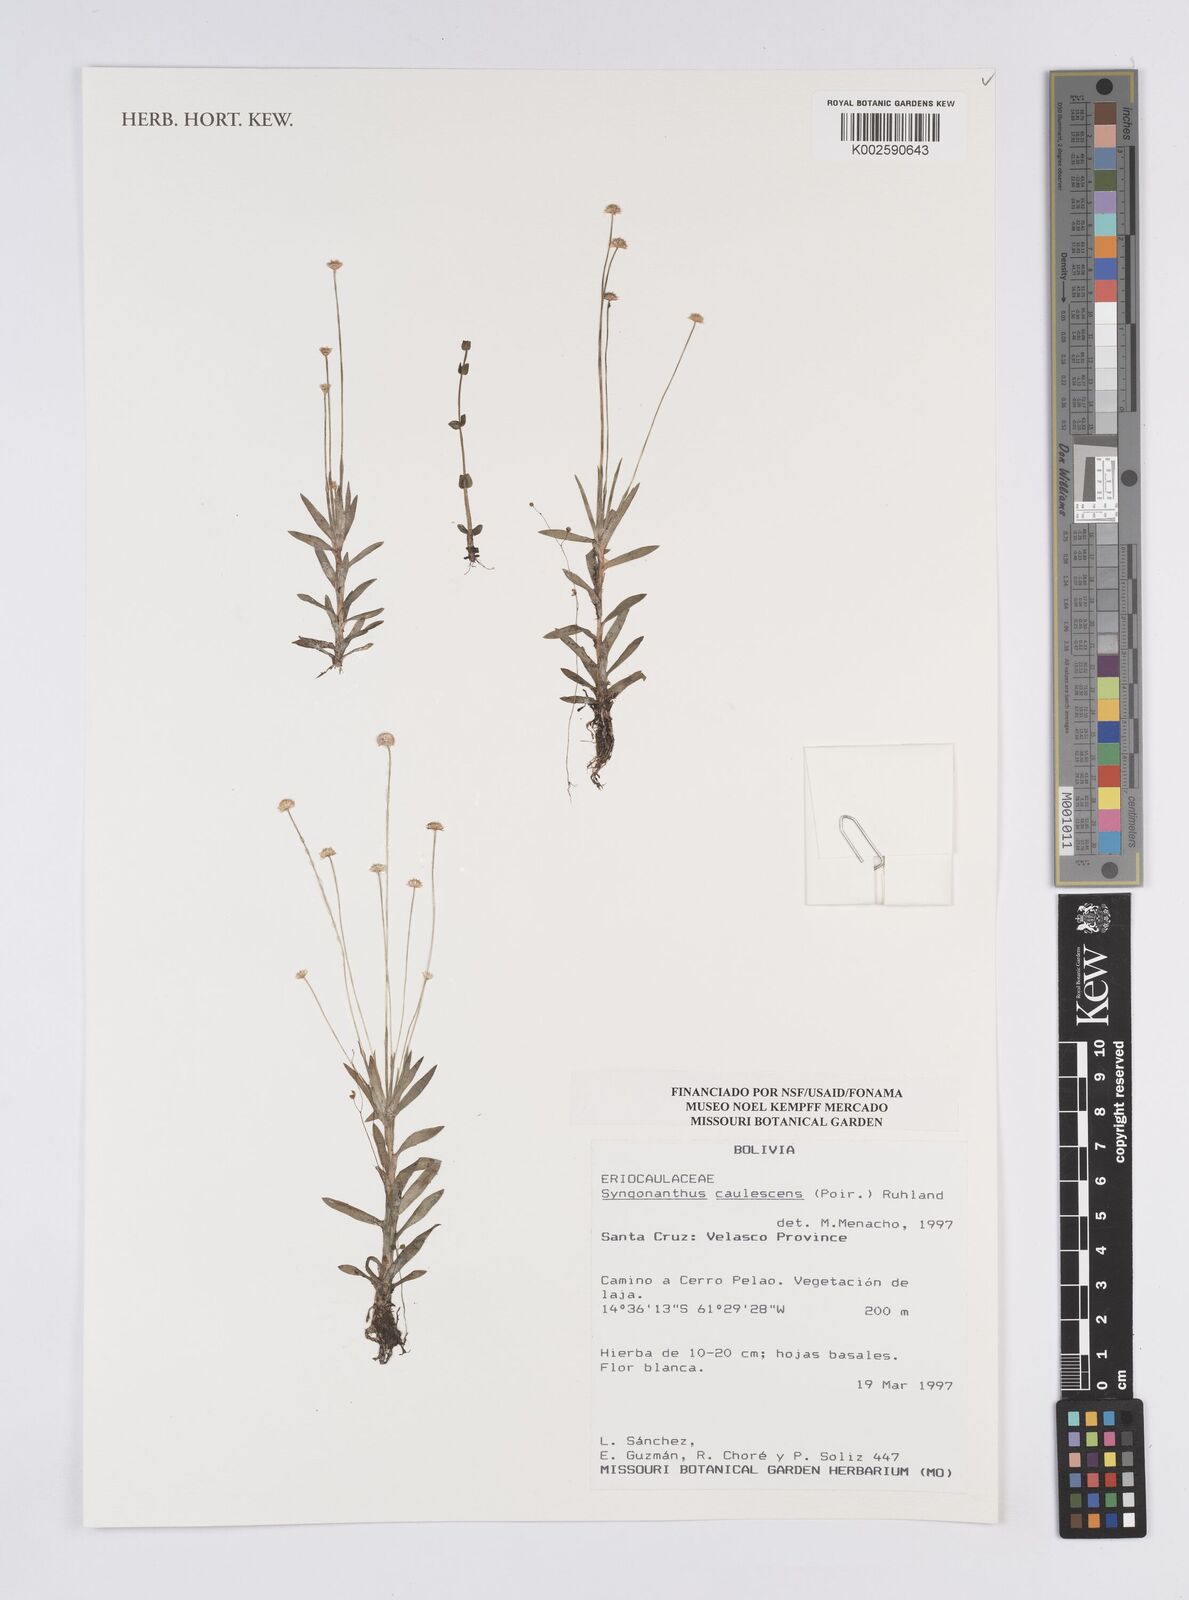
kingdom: Plantae
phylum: Tracheophyta
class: Liliopsida
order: Poales
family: Eriocaulaceae
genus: Syngonanthus
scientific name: Syngonanthus caulescens
